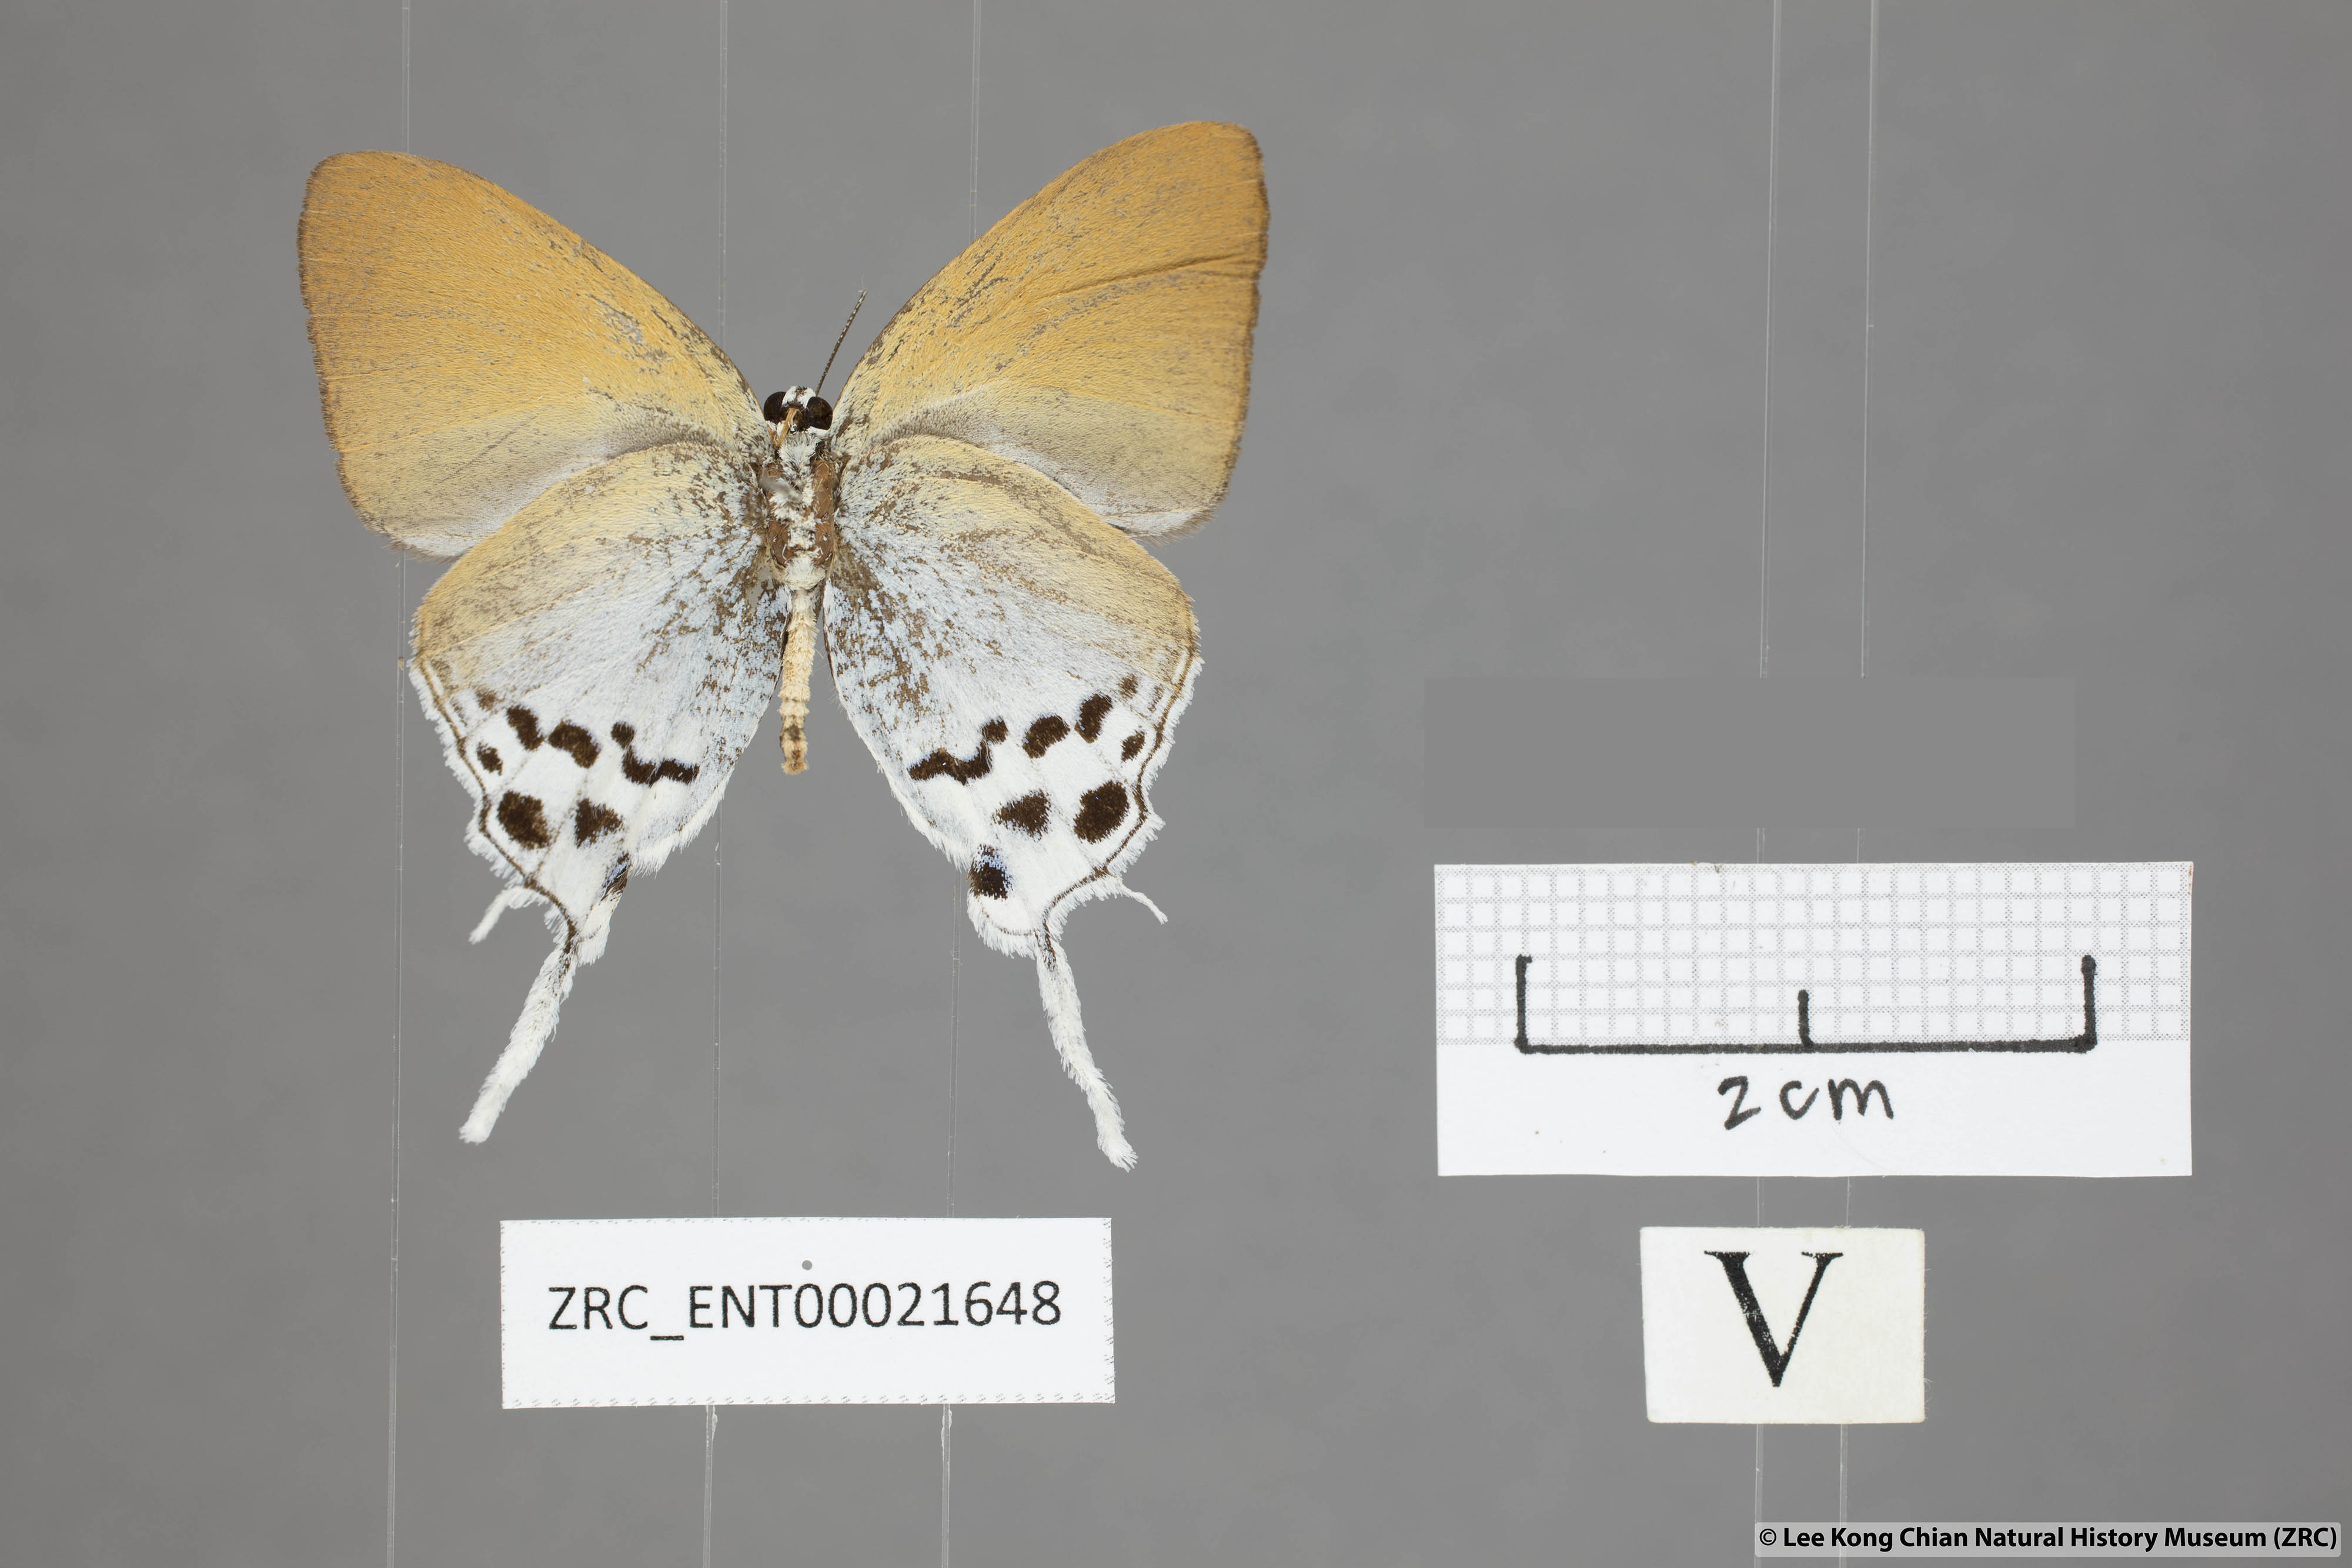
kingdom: Animalia
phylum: Arthropoda
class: Insecta
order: Lepidoptera
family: Lycaenidae
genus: Thrix
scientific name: Thrix
